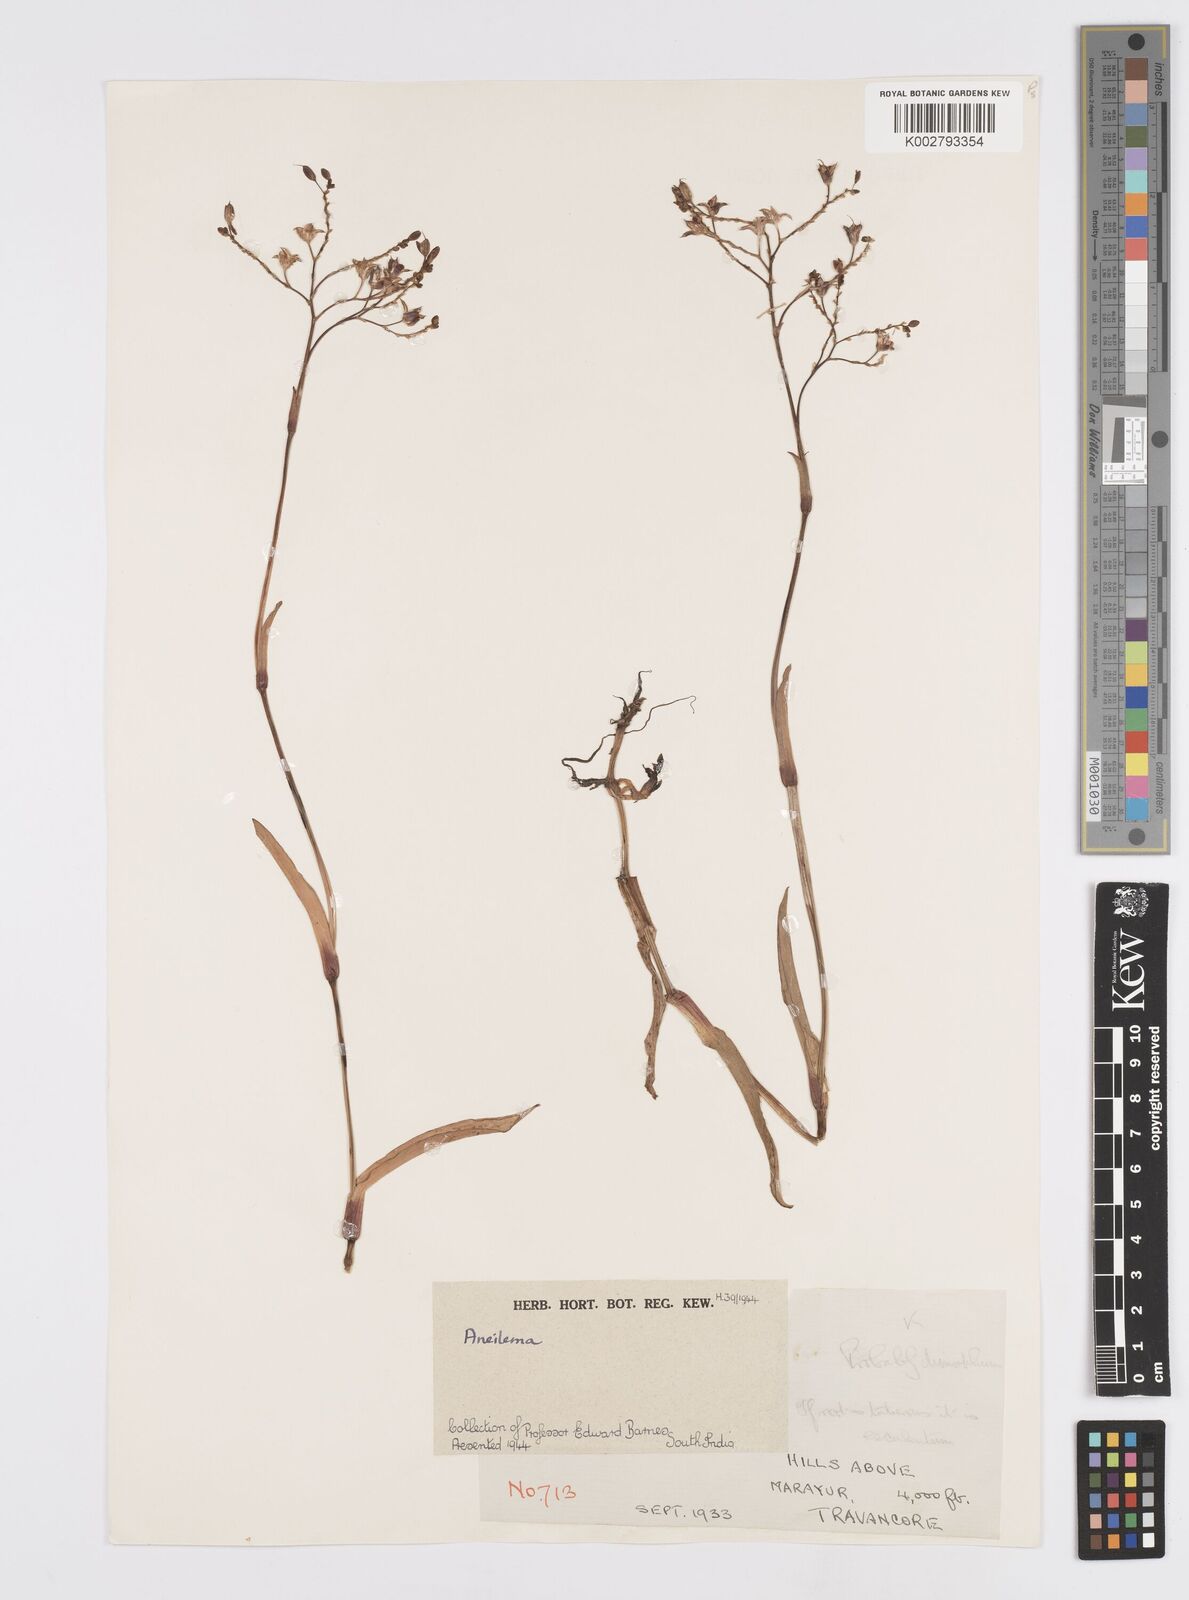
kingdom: Plantae
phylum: Tracheophyta
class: Liliopsida
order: Commelinales
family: Commelinaceae
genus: Murdannia
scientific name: Murdannia
